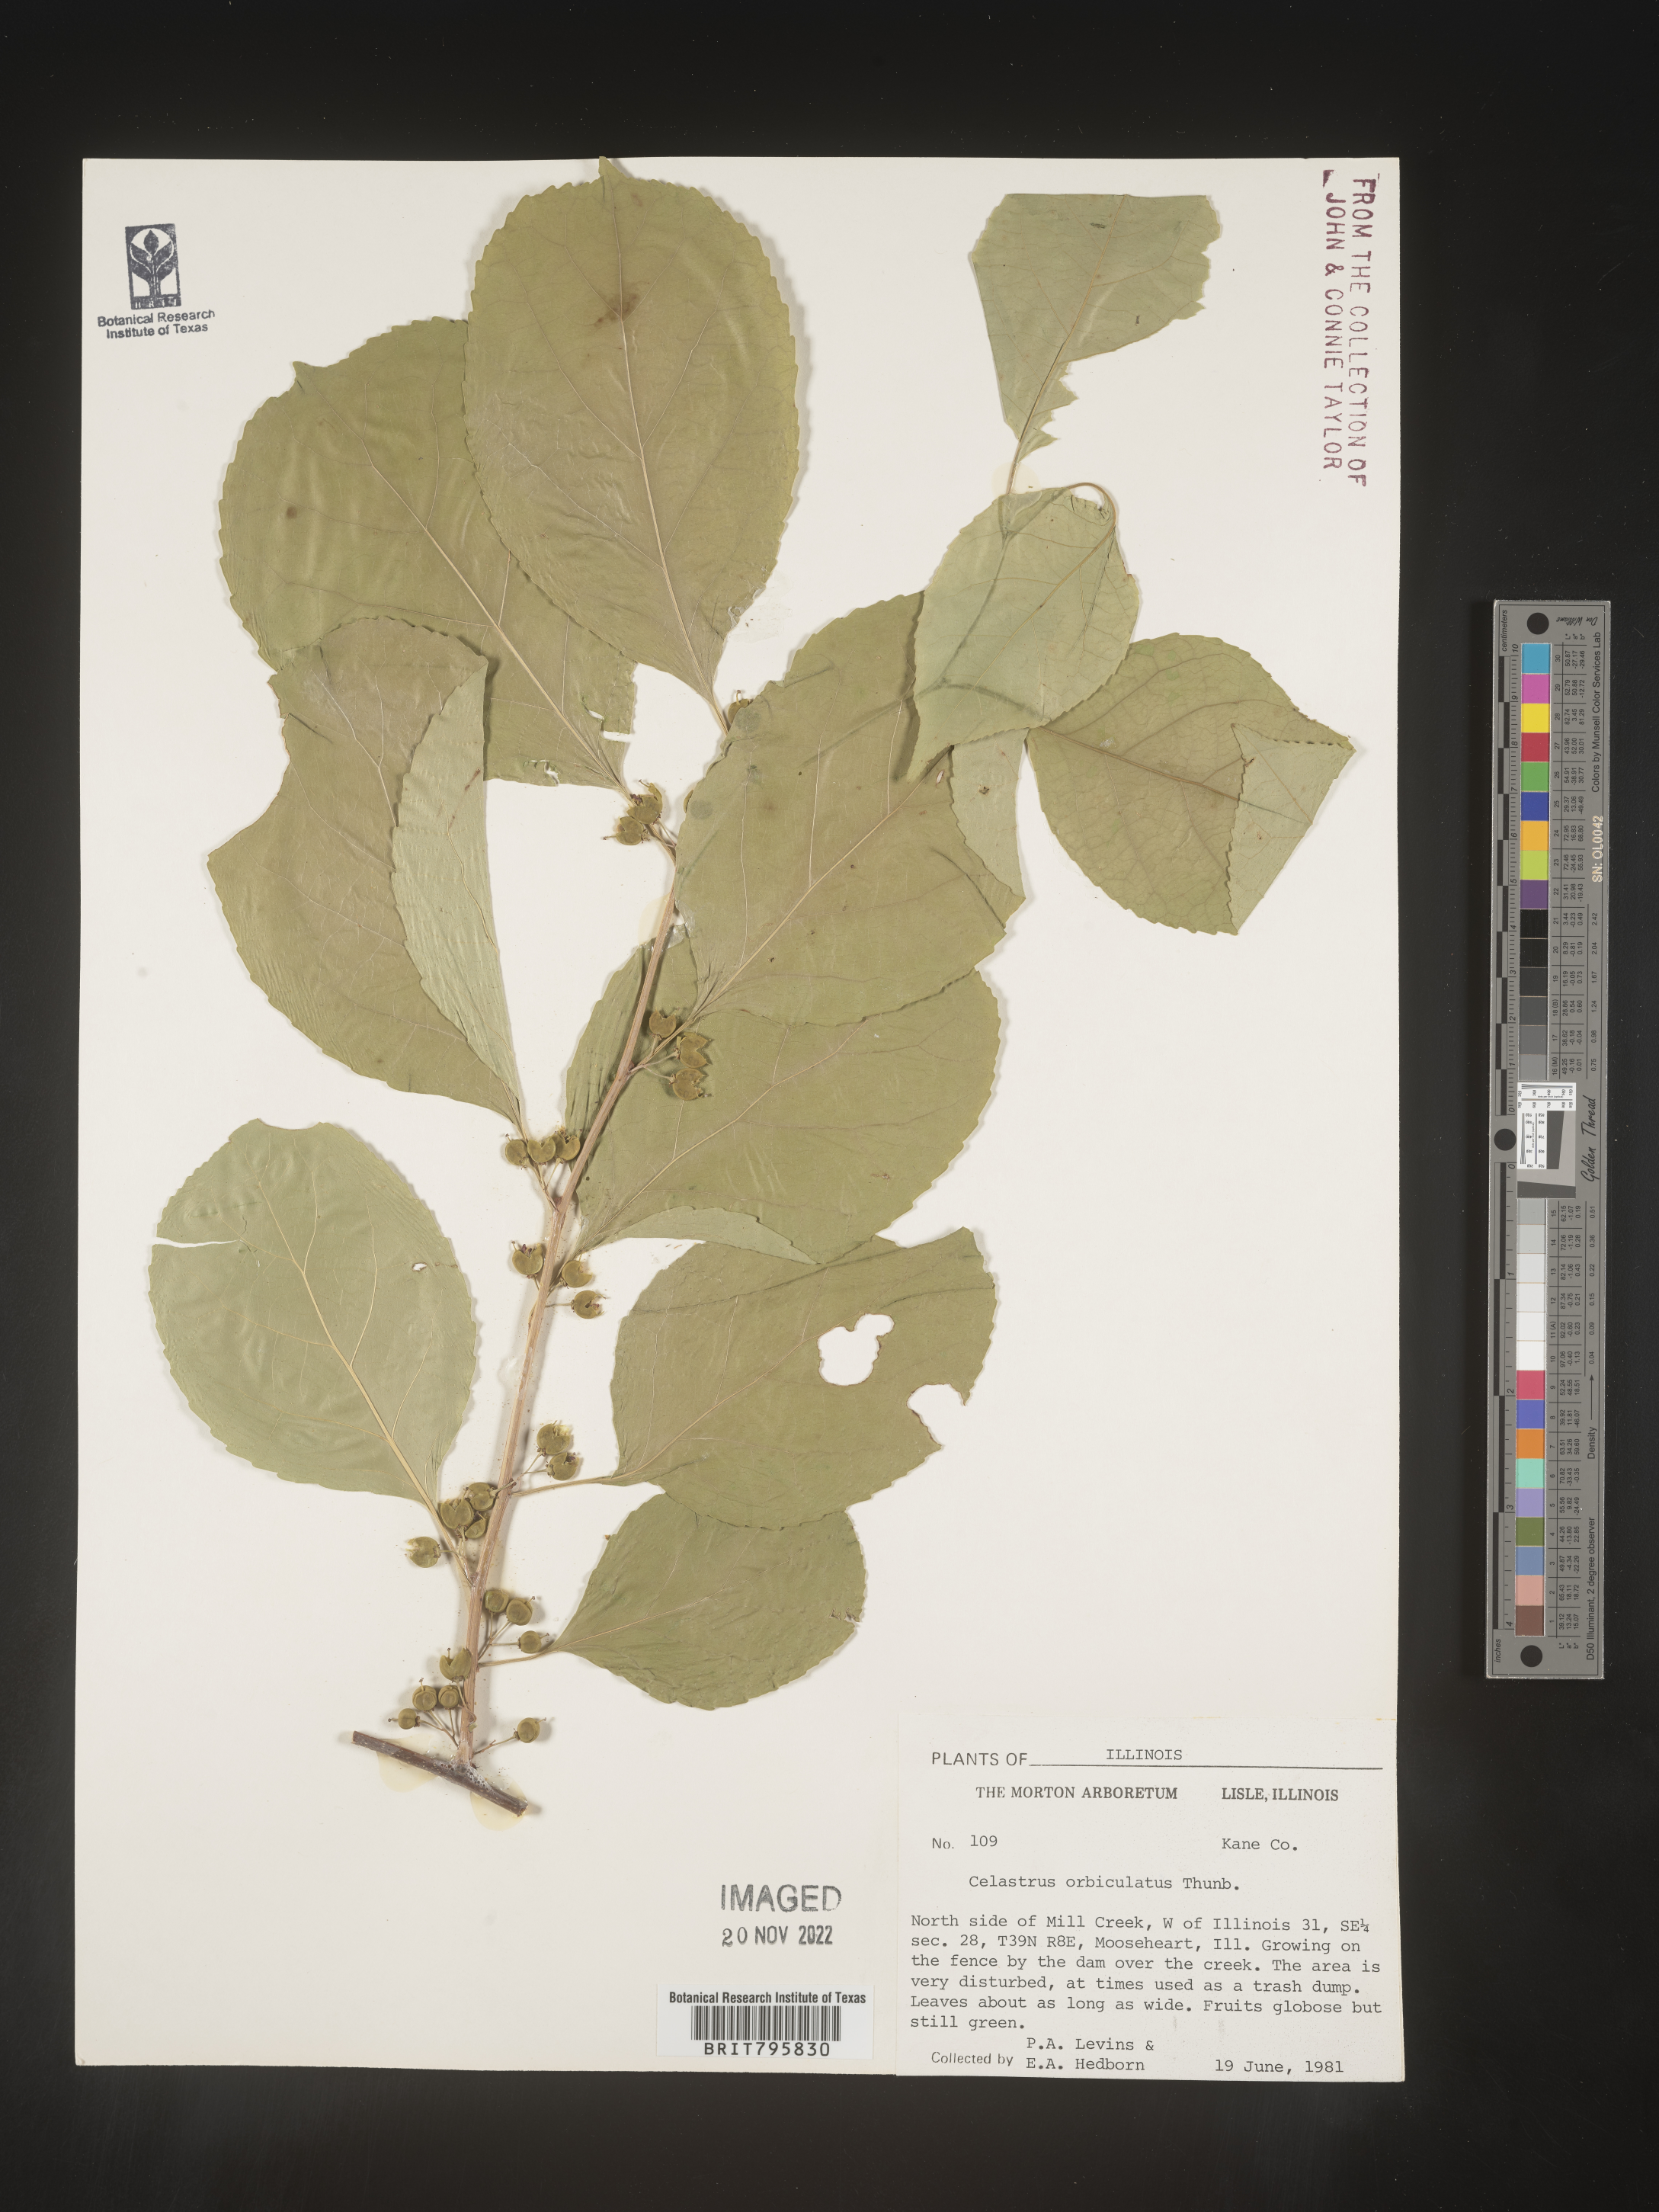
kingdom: Plantae
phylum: Tracheophyta
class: Magnoliopsida
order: Celastrales
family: Celastraceae
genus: Celastrus
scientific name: Celastrus
